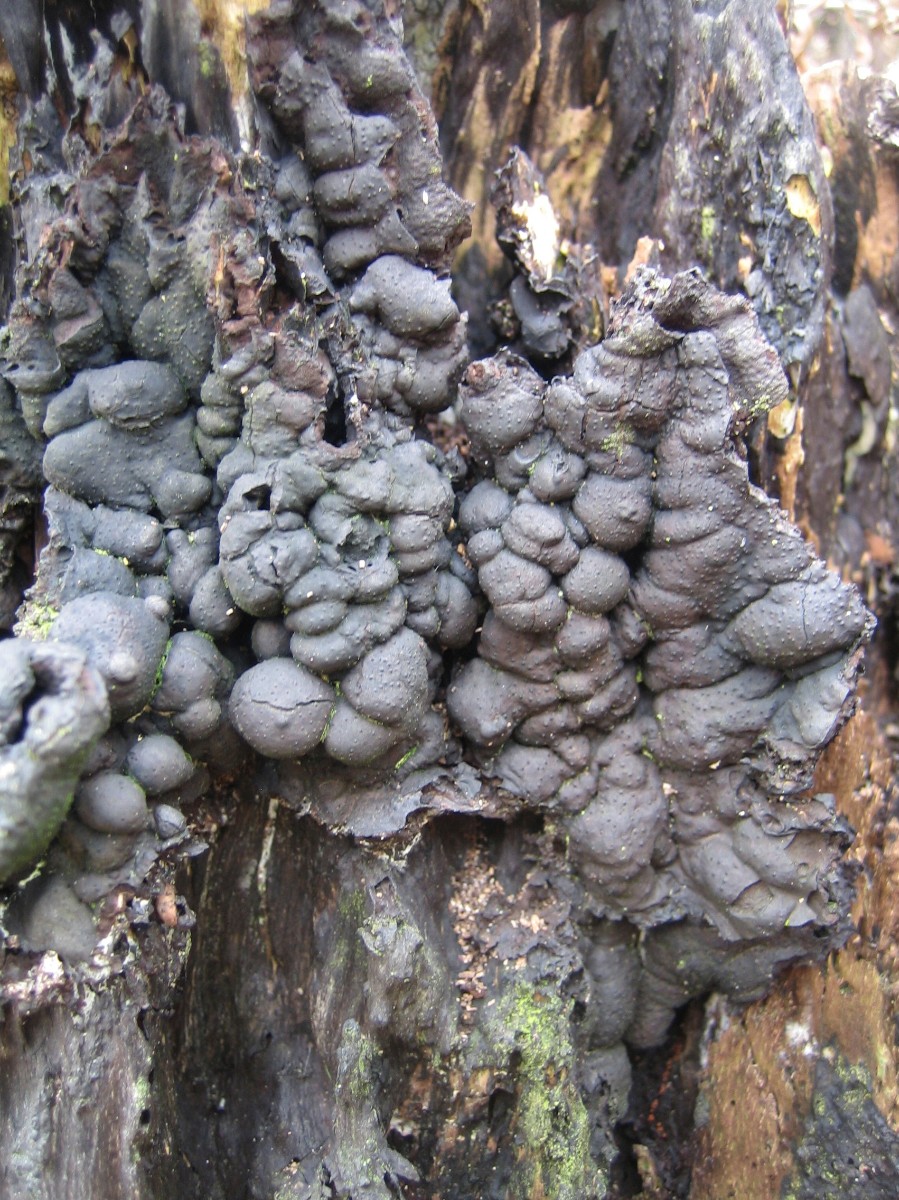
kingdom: Fungi
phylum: Ascomycota
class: Sordariomycetes
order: Xylariales
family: Xylariaceae
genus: Kretzschmaria
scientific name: Kretzschmaria deusta
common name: stor kulsvamp
